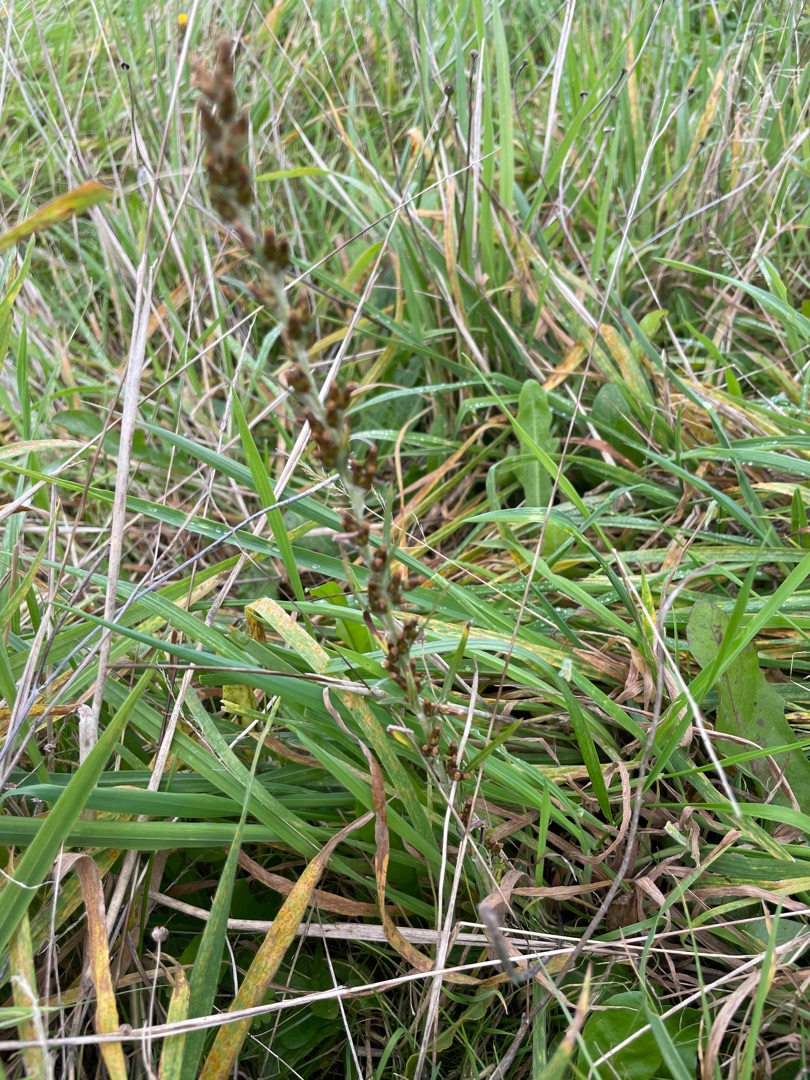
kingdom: Plantae
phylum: Tracheophyta
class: Magnoliopsida
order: Asterales
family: Asteraceae
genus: Omalotheca
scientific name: Omalotheca sylvatica
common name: Rank evighedsblomst
